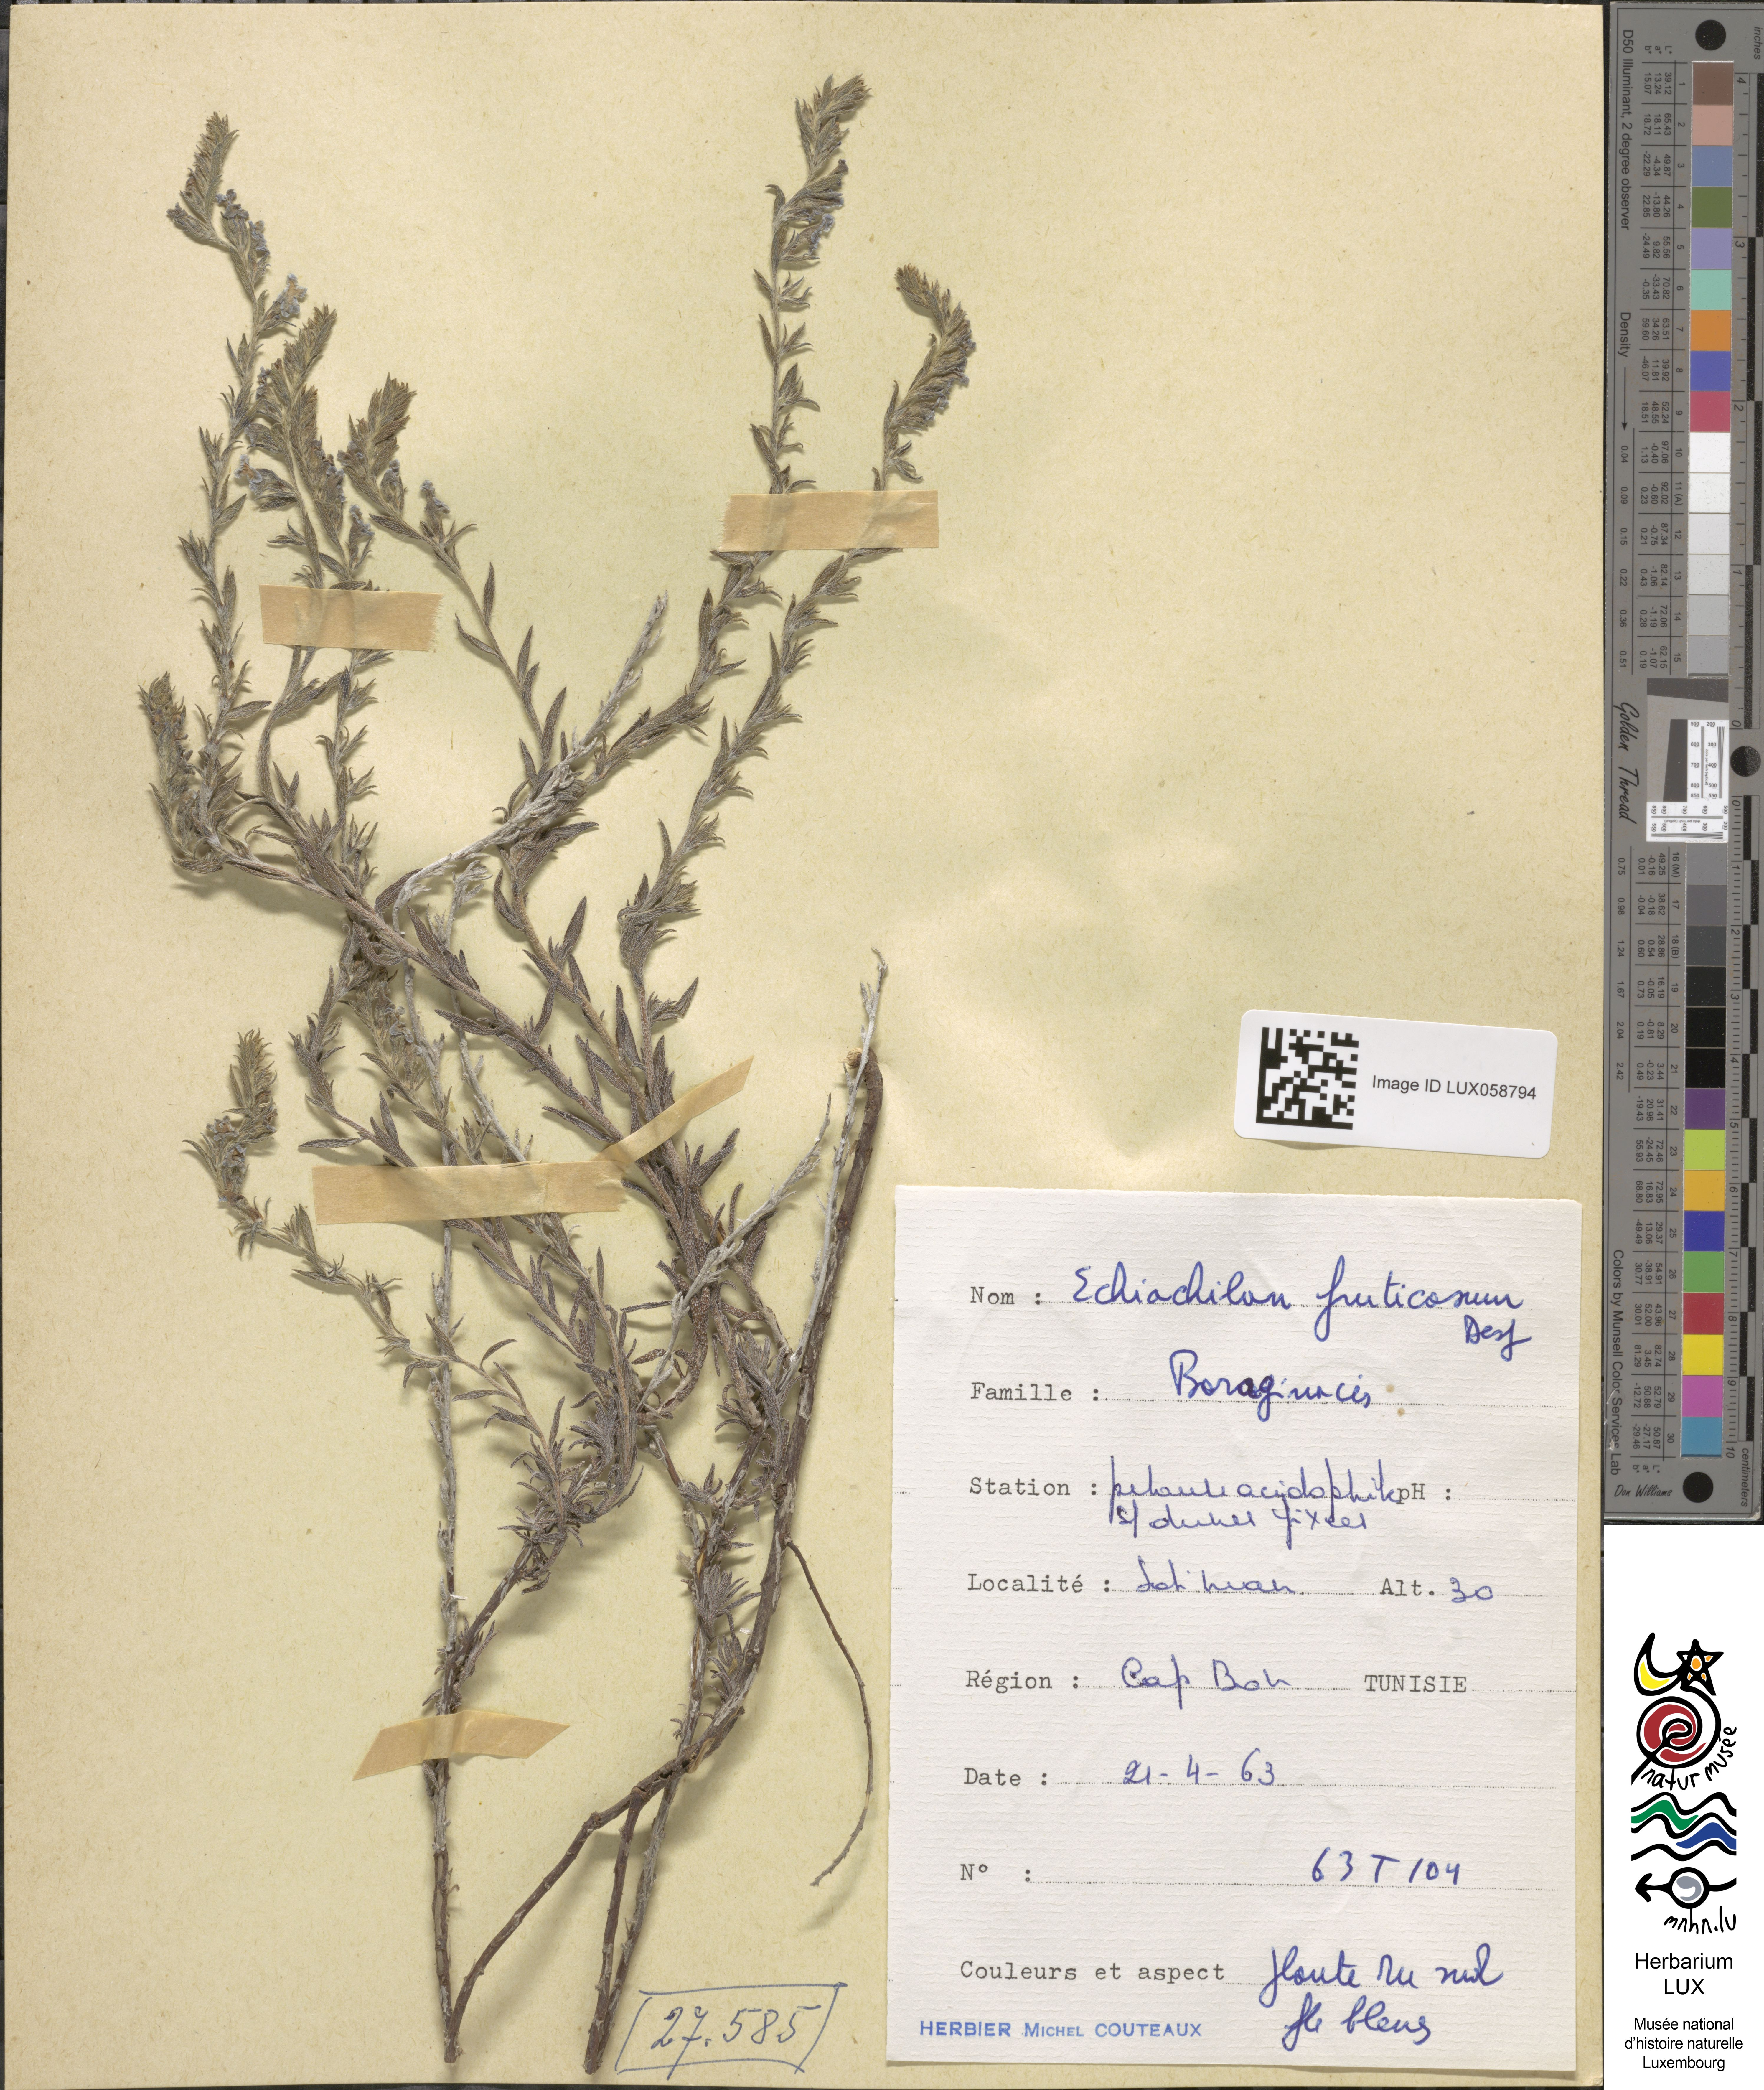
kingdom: Plantae
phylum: Tracheophyta
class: Magnoliopsida
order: Boraginales
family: Boraginaceae
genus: Echiochilon
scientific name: Echiochilon fruticosum
